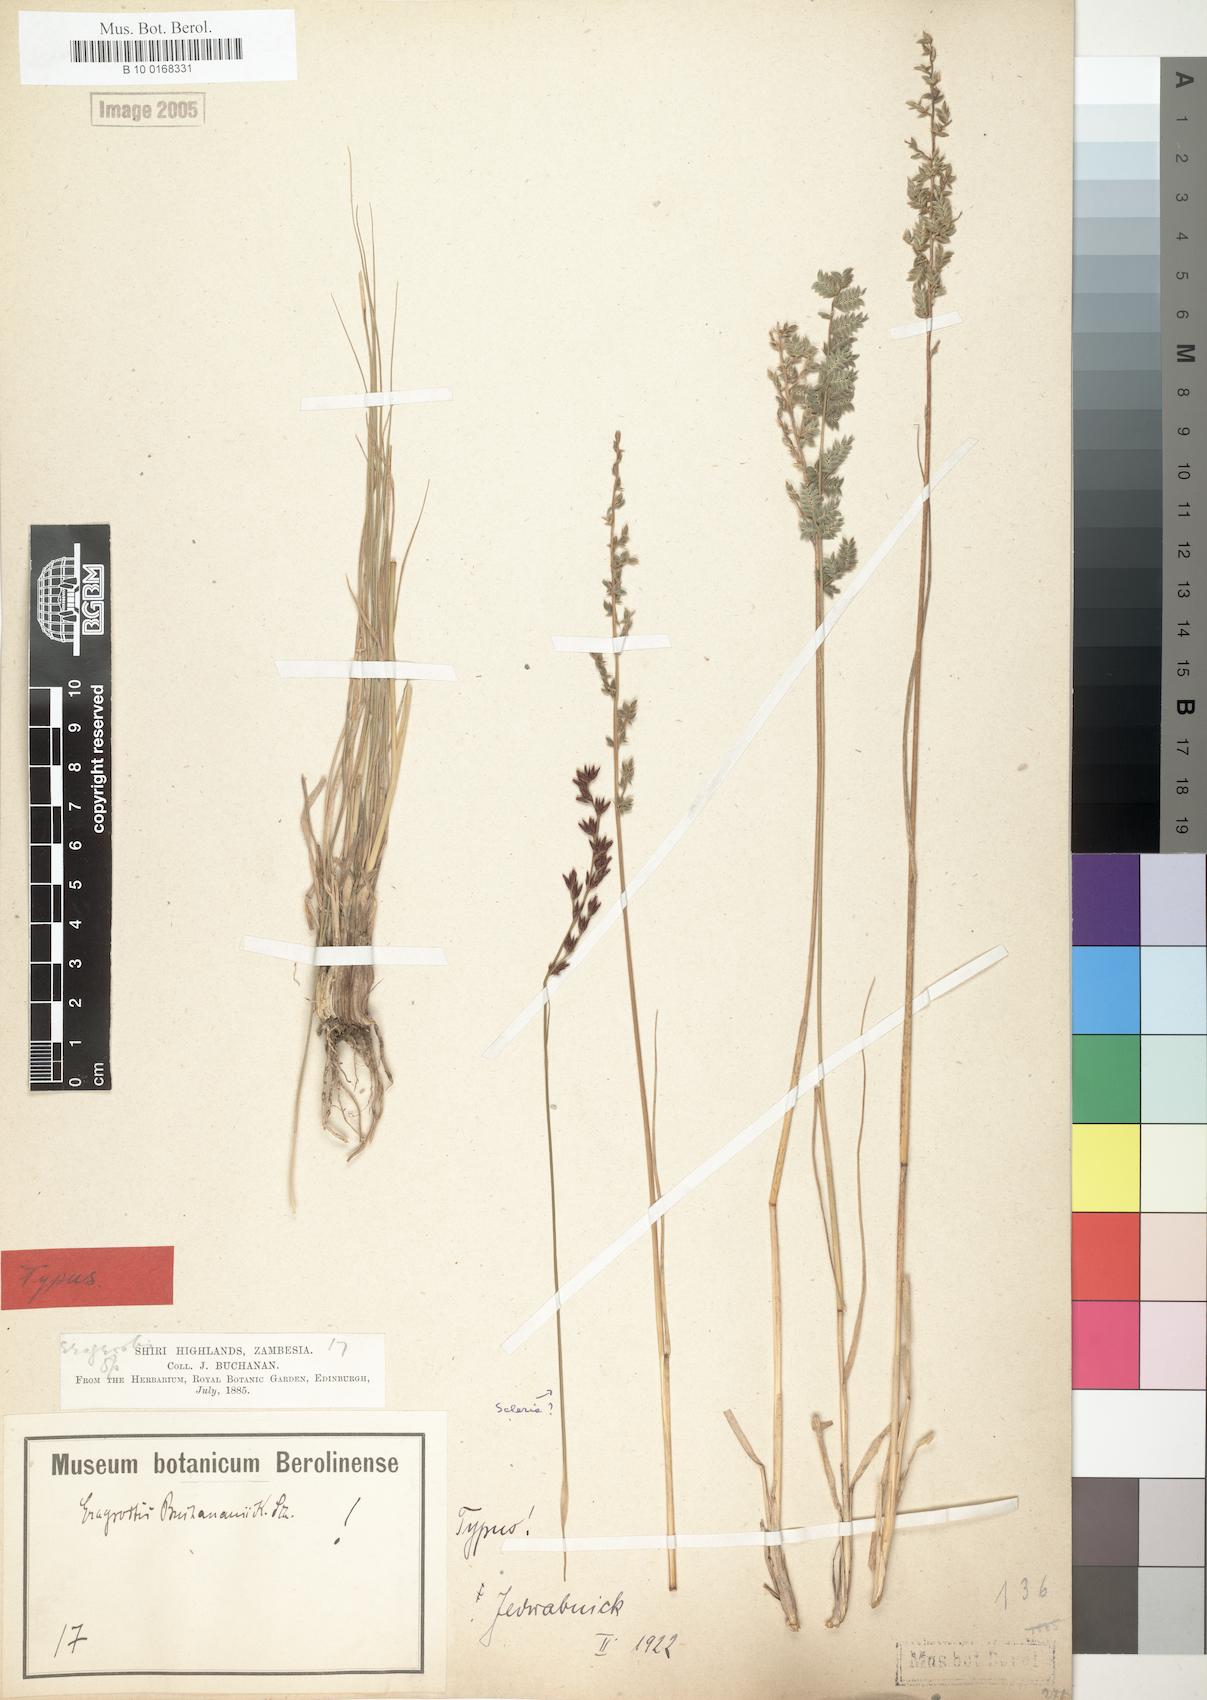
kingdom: Plantae
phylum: Tracheophyta
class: Liliopsida
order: Poales
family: Poaceae
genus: Eragrostis
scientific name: Eragrostis nindensis
